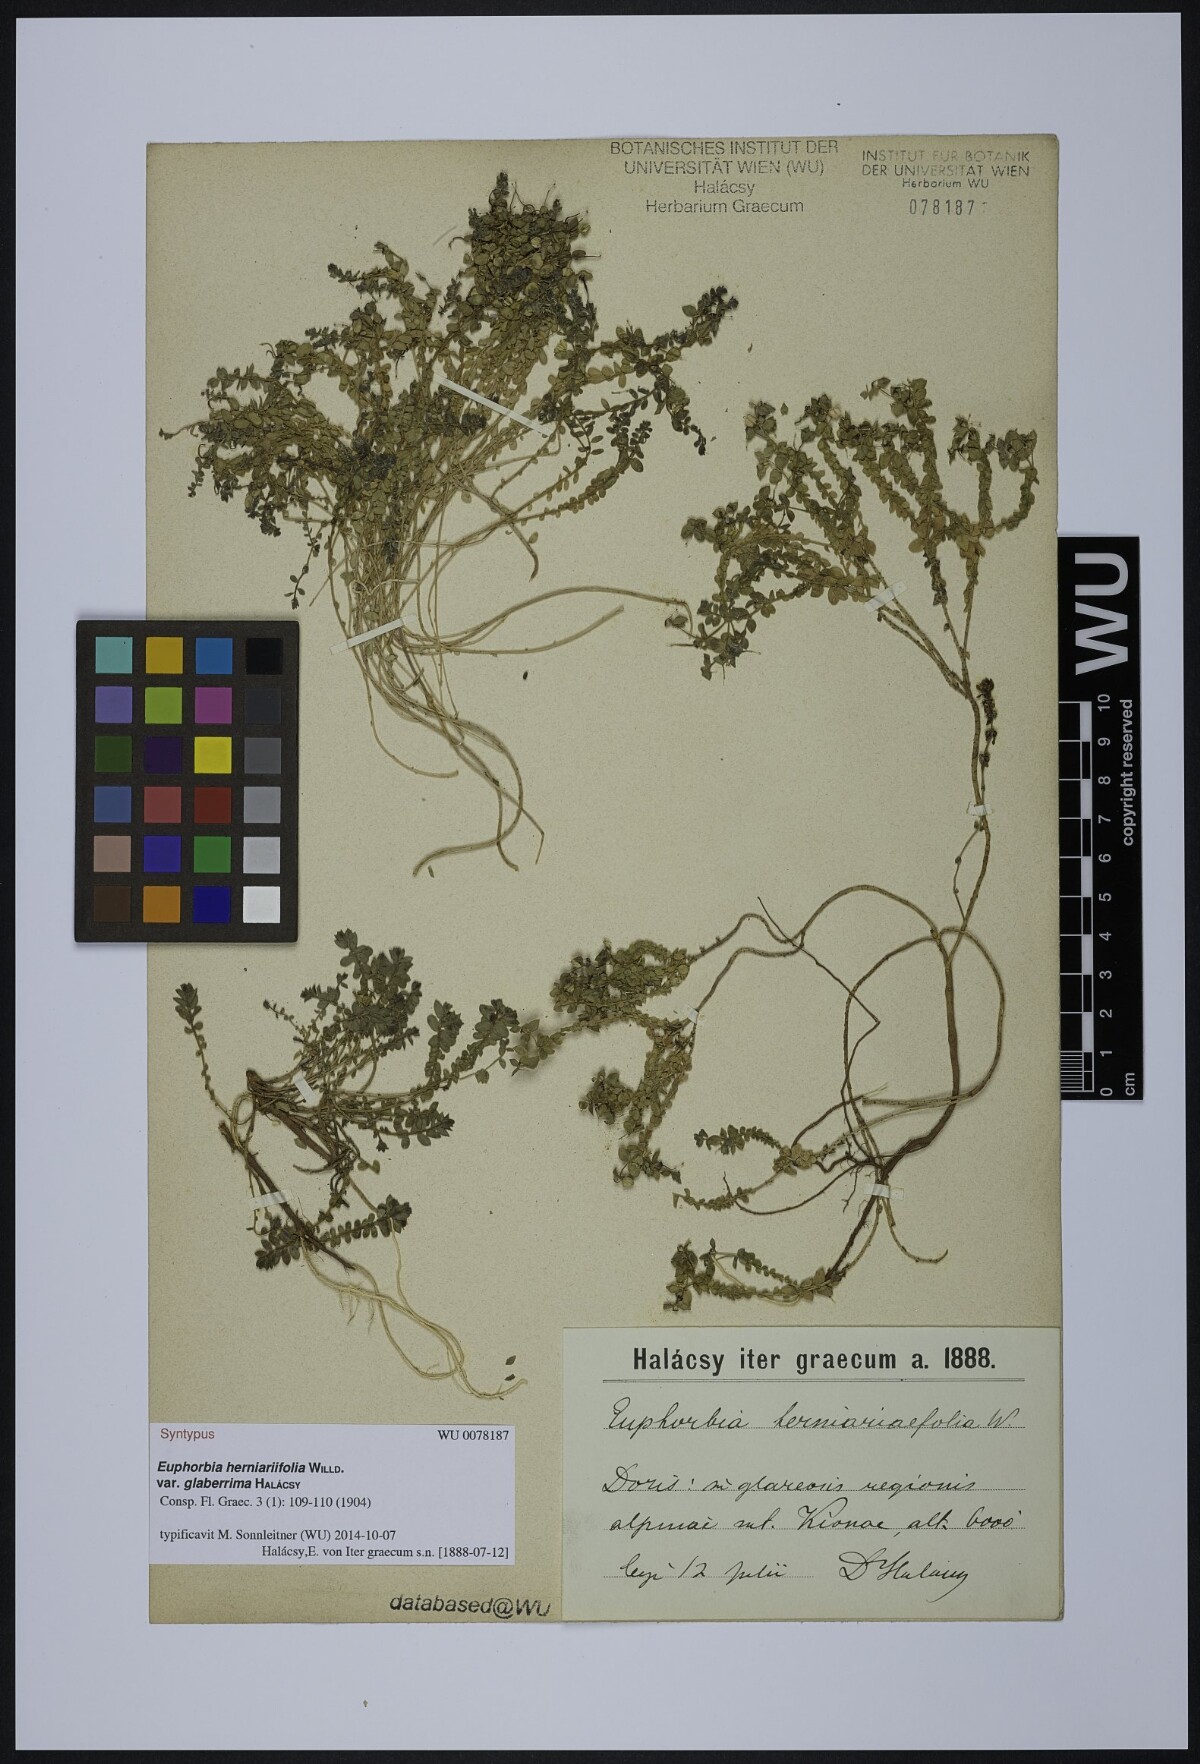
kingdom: Plantae
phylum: Tracheophyta
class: Magnoliopsida
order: Malpighiales
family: Euphorbiaceae
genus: Euphorbia
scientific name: Euphorbia herniariifolia
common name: Herniaria-leaf spurge
